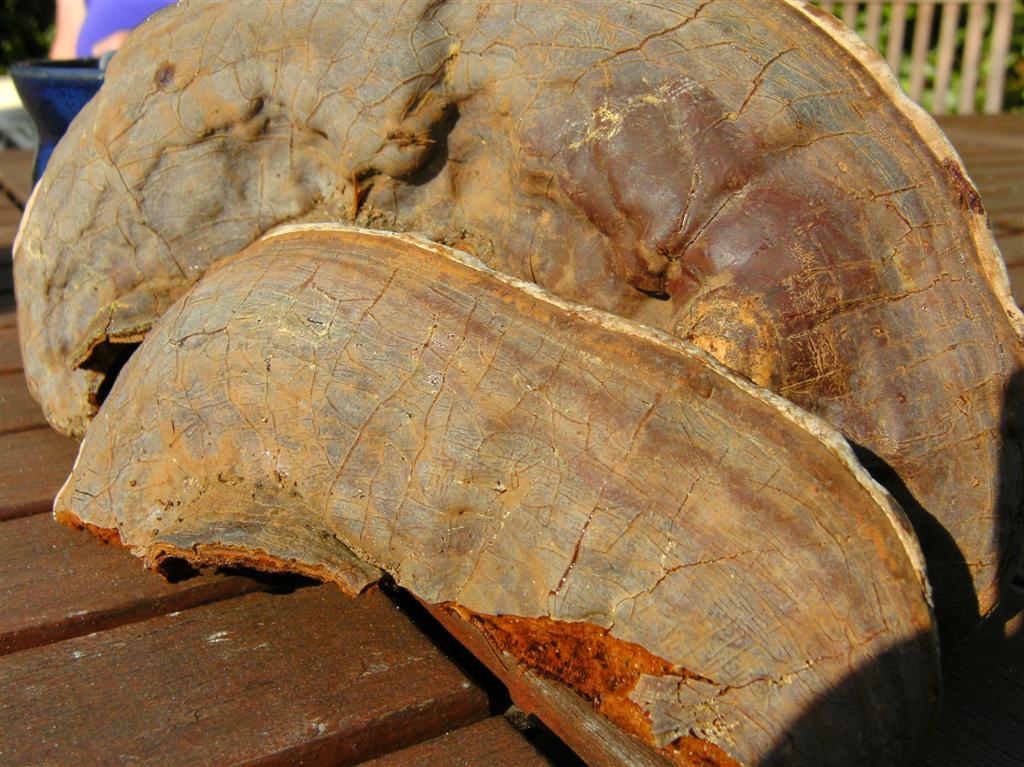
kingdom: Fungi
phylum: Basidiomycota
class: Agaricomycetes
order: Polyporales
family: Polyporaceae
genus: Ganoderma
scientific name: Ganoderma pfeifferi
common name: kobberrød lakporesvamp
